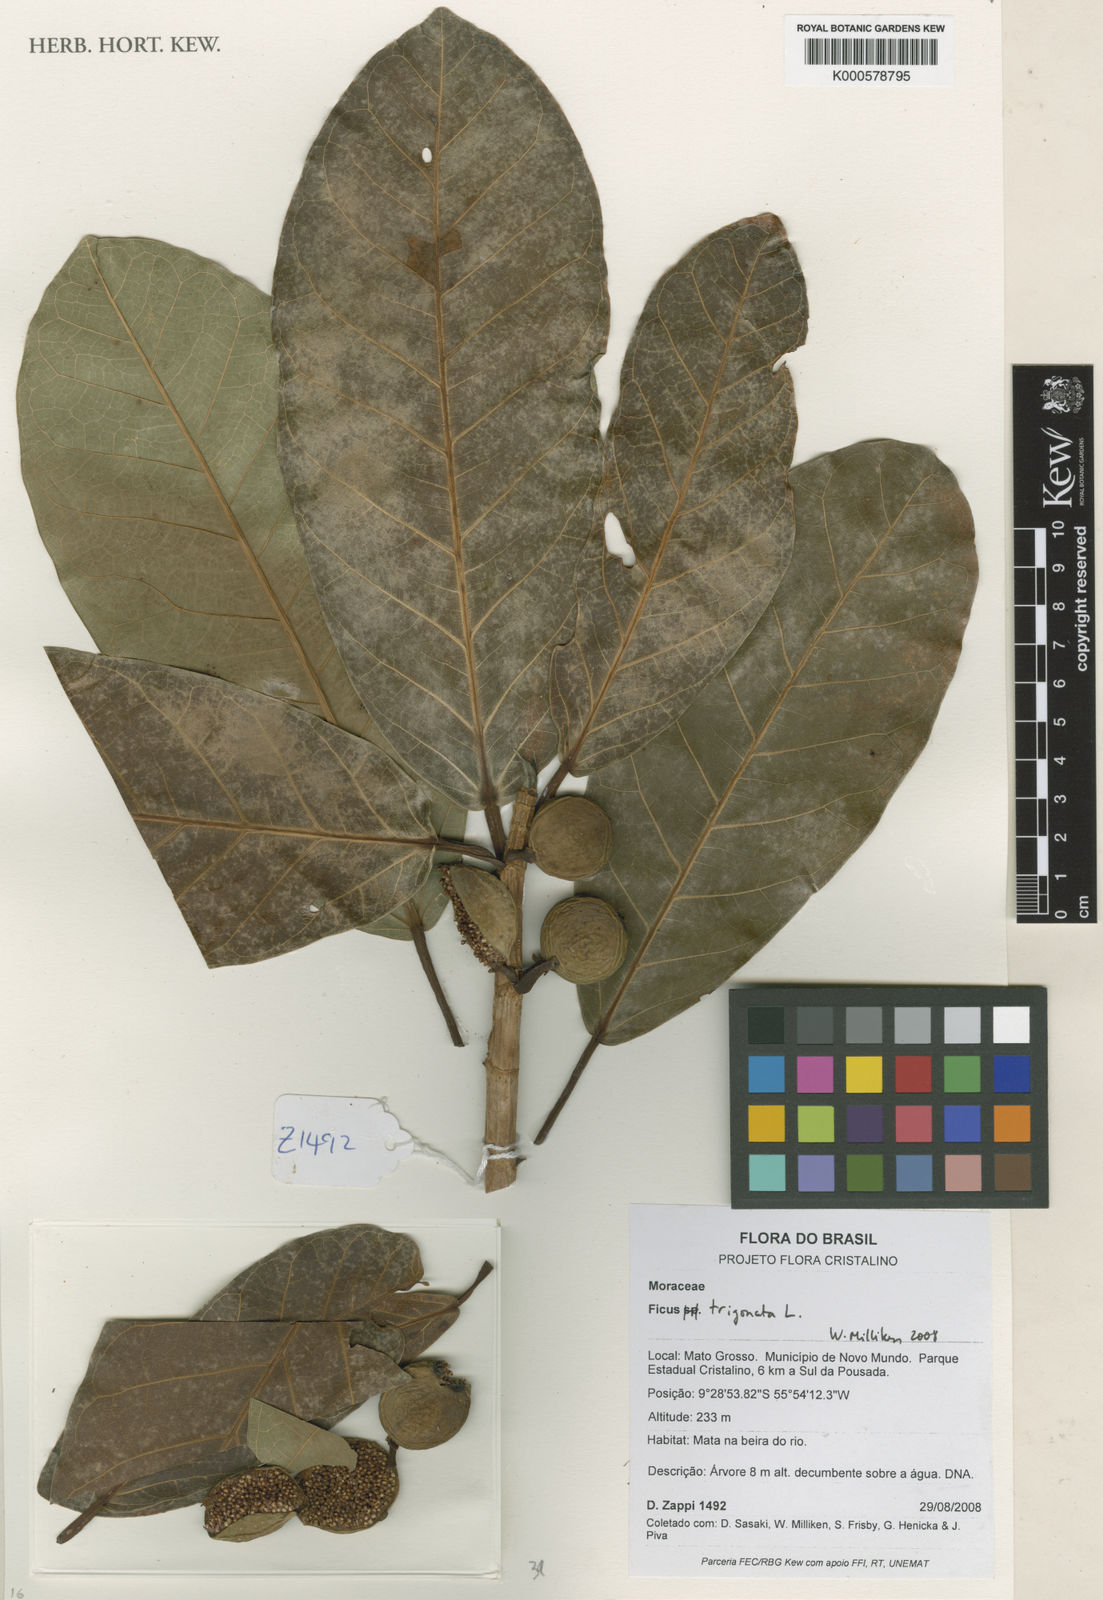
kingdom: Plantae
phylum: Tracheophyta
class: Magnoliopsida
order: Rosales
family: Moraceae
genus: Ficus
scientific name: Ficus trigonata
